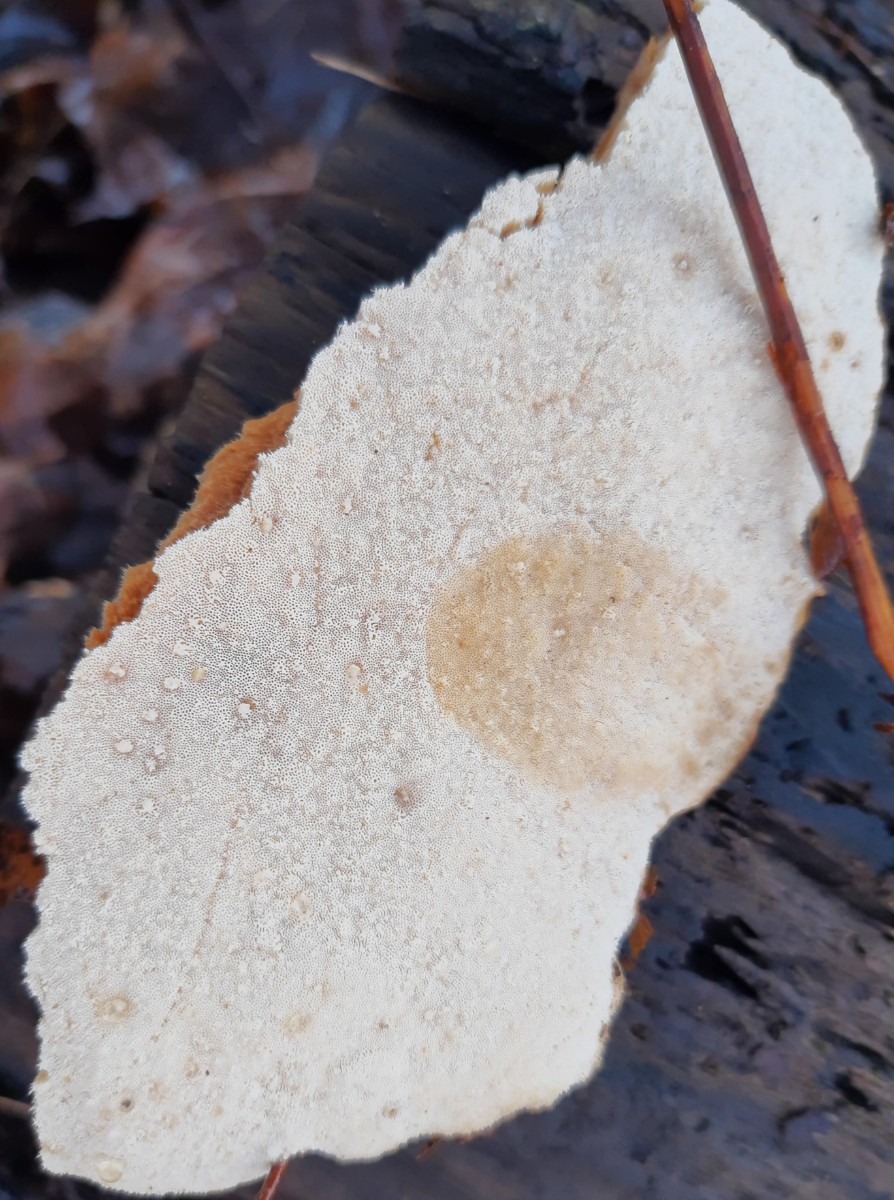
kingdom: Fungi
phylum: Basidiomycota
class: Agaricomycetes
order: Polyporales
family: Ischnodermataceae
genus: Ischnoderma
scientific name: Ischnoderma resinosum
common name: løv-tjæreporesvamp
